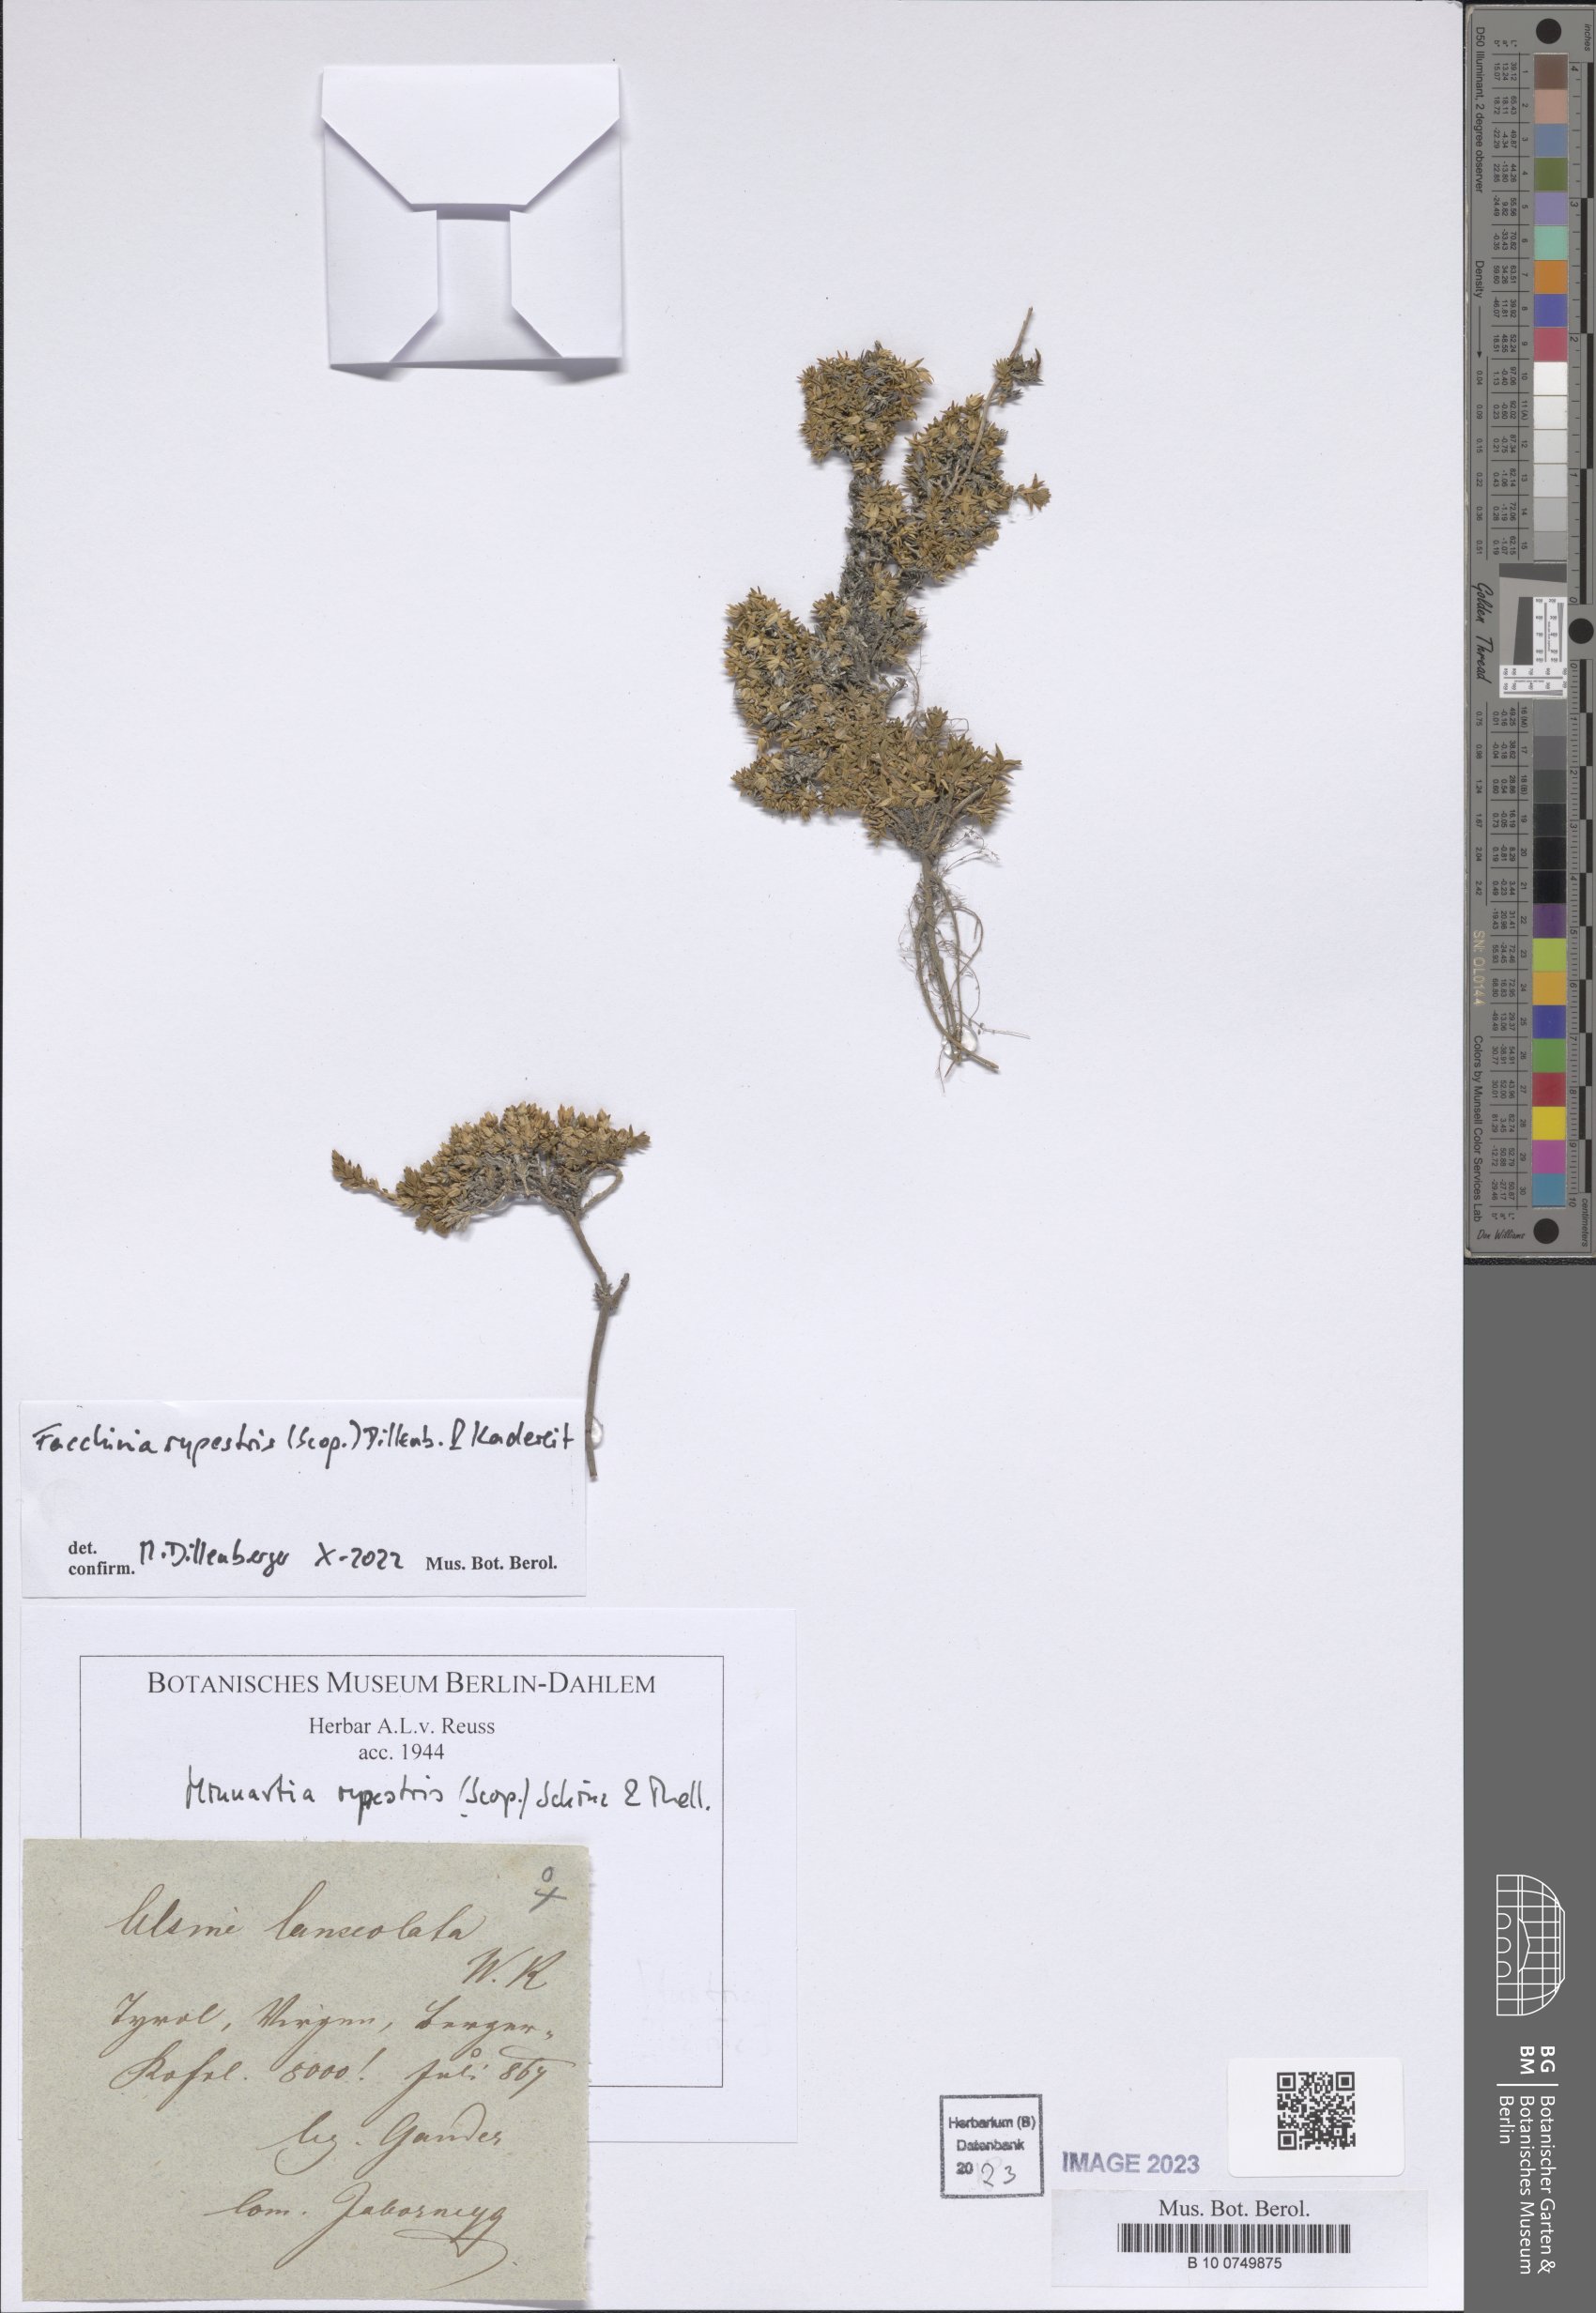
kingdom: Plantae
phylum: Tracheophyta
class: Magnoliopsida
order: Caryophyllales
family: Caryophyllaceae
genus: Facchinia
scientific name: Facchinia rupestris
